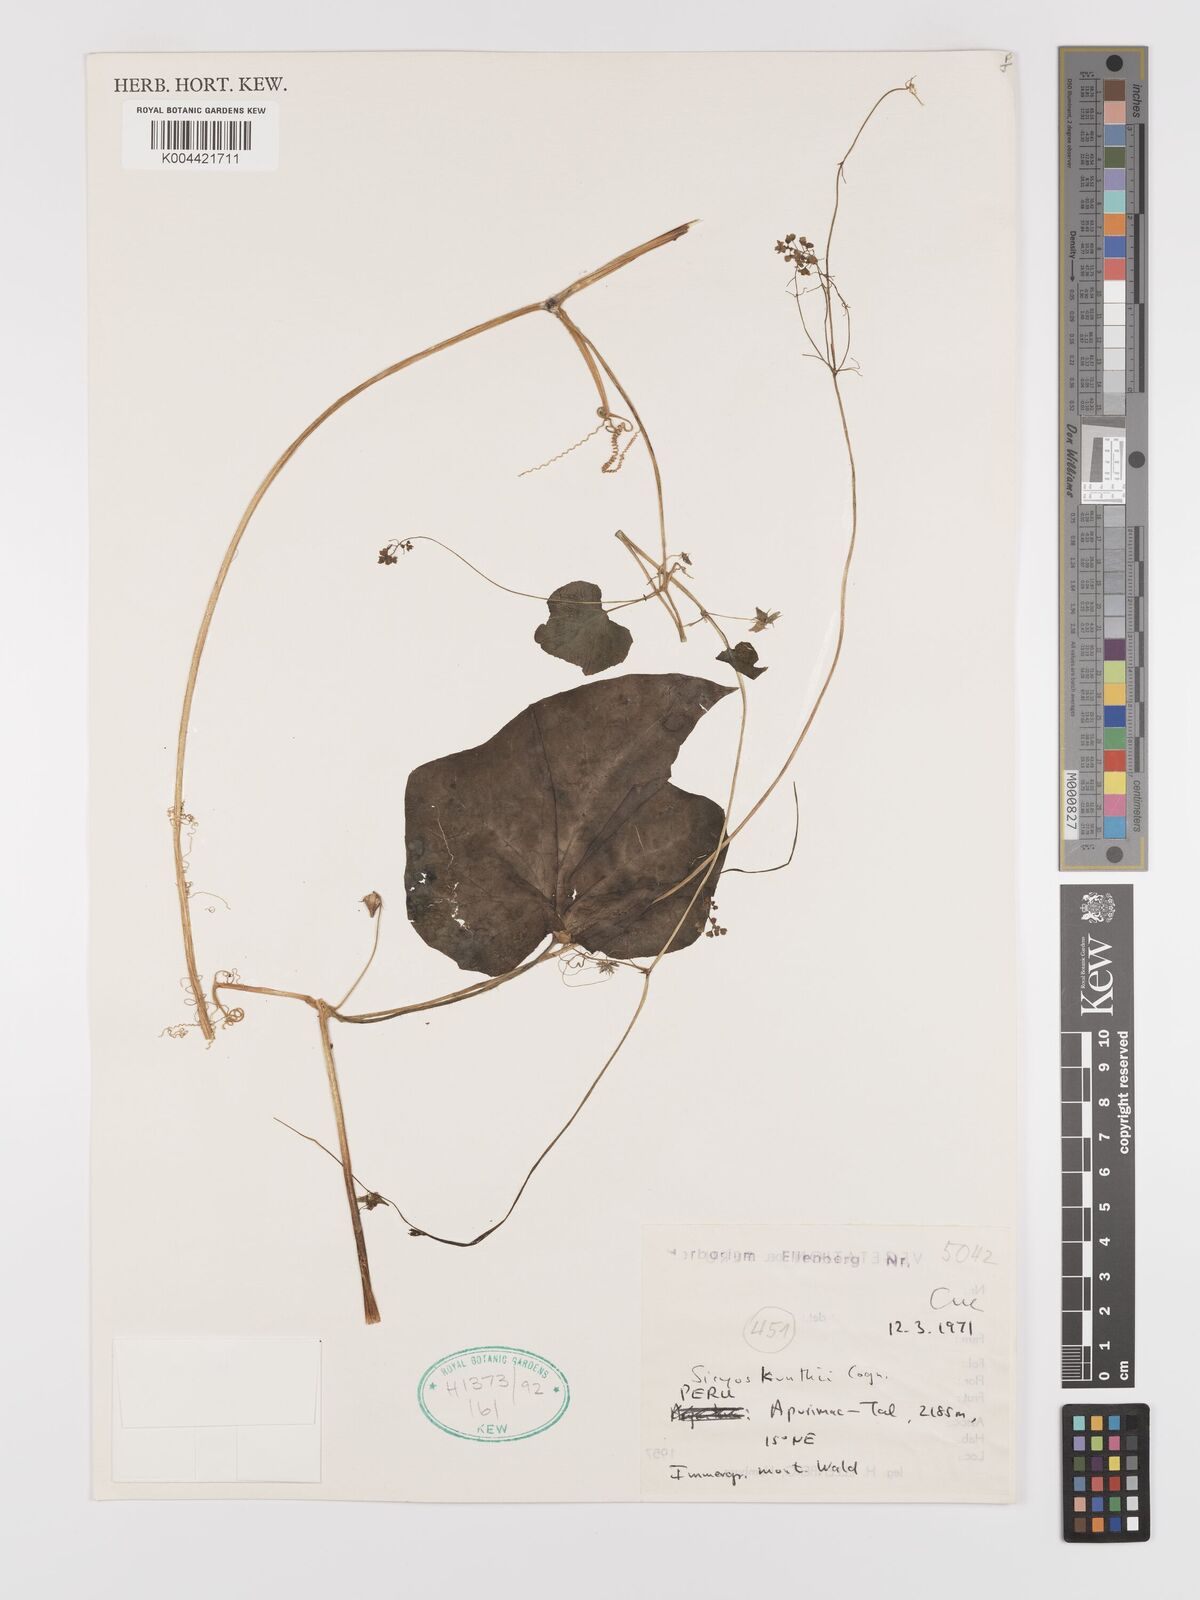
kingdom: Plantae
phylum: Tracheophyta
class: Magnoliopsida
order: Cucurbitales
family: Cucurbitaceae
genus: Sicyos
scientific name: Sicyos kunthii
